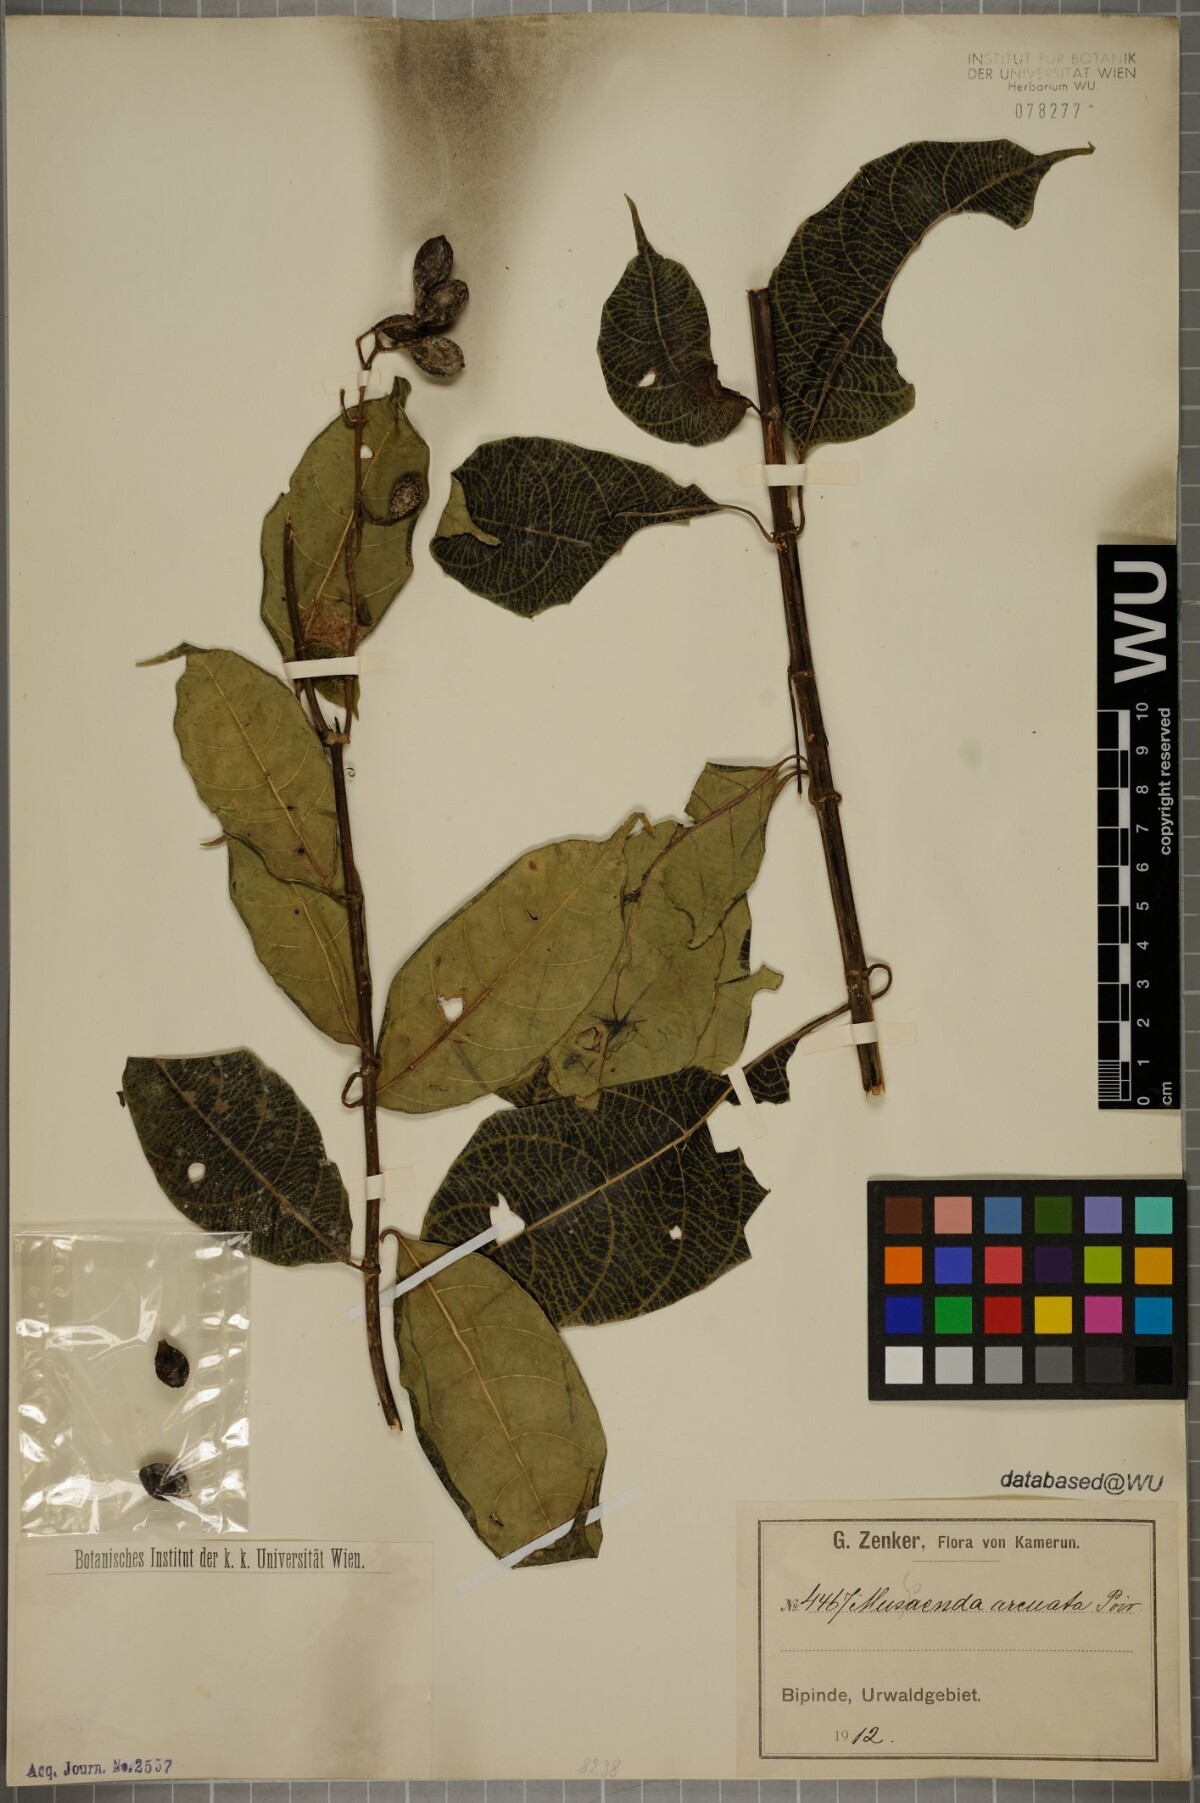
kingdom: Plantae
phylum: Tracheophyta
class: Magnoliopsida
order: Gentianales
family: Rubiaceae
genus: Mussaenda
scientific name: Mussaenda arcuata
